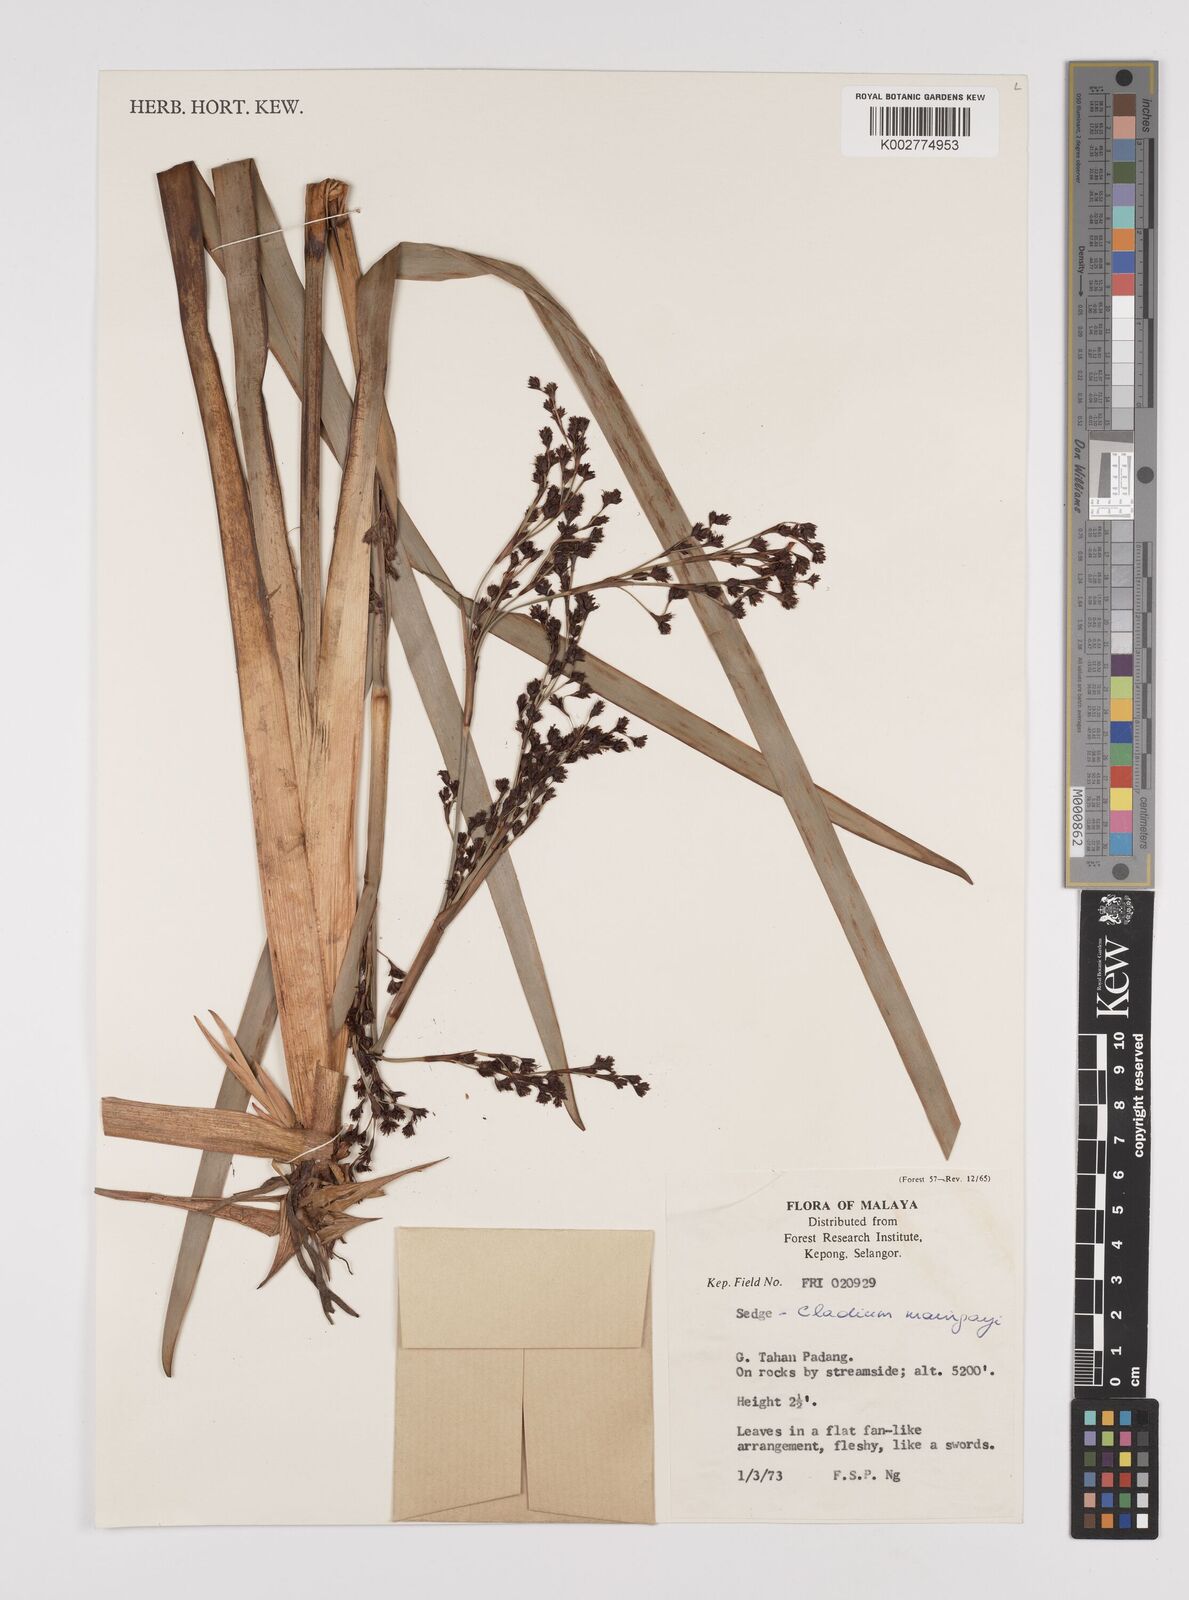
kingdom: Plantae
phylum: Tracheophyta
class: Liliopsida
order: Poales
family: Cyperaceae
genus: Machaerina
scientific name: Machaerina maingayi
